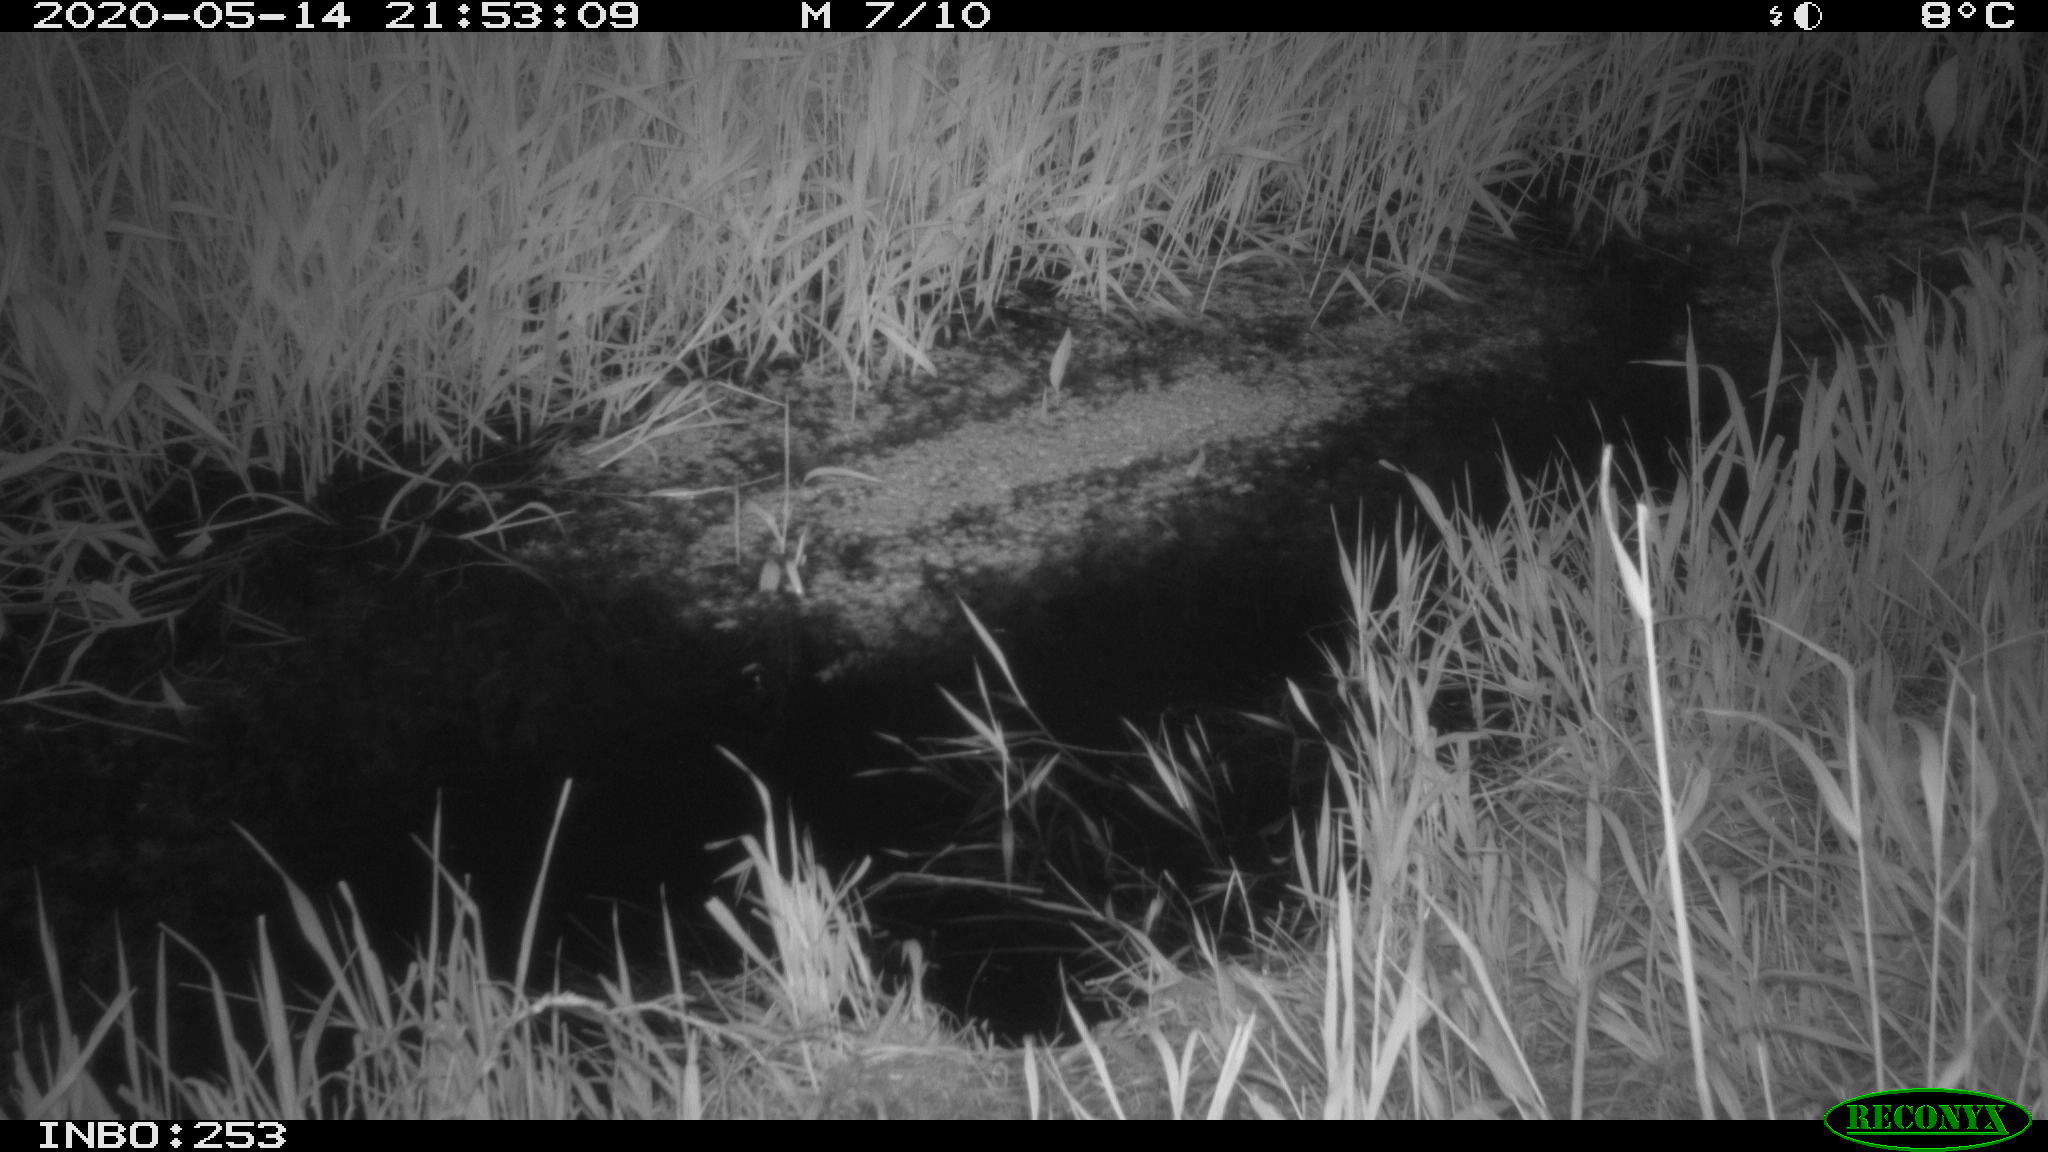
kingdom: Animalia
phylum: Chordata
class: Aves
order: Anseriformes
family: Anatidae
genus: Anas
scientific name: Anas platyrhynchos
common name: Mallard
